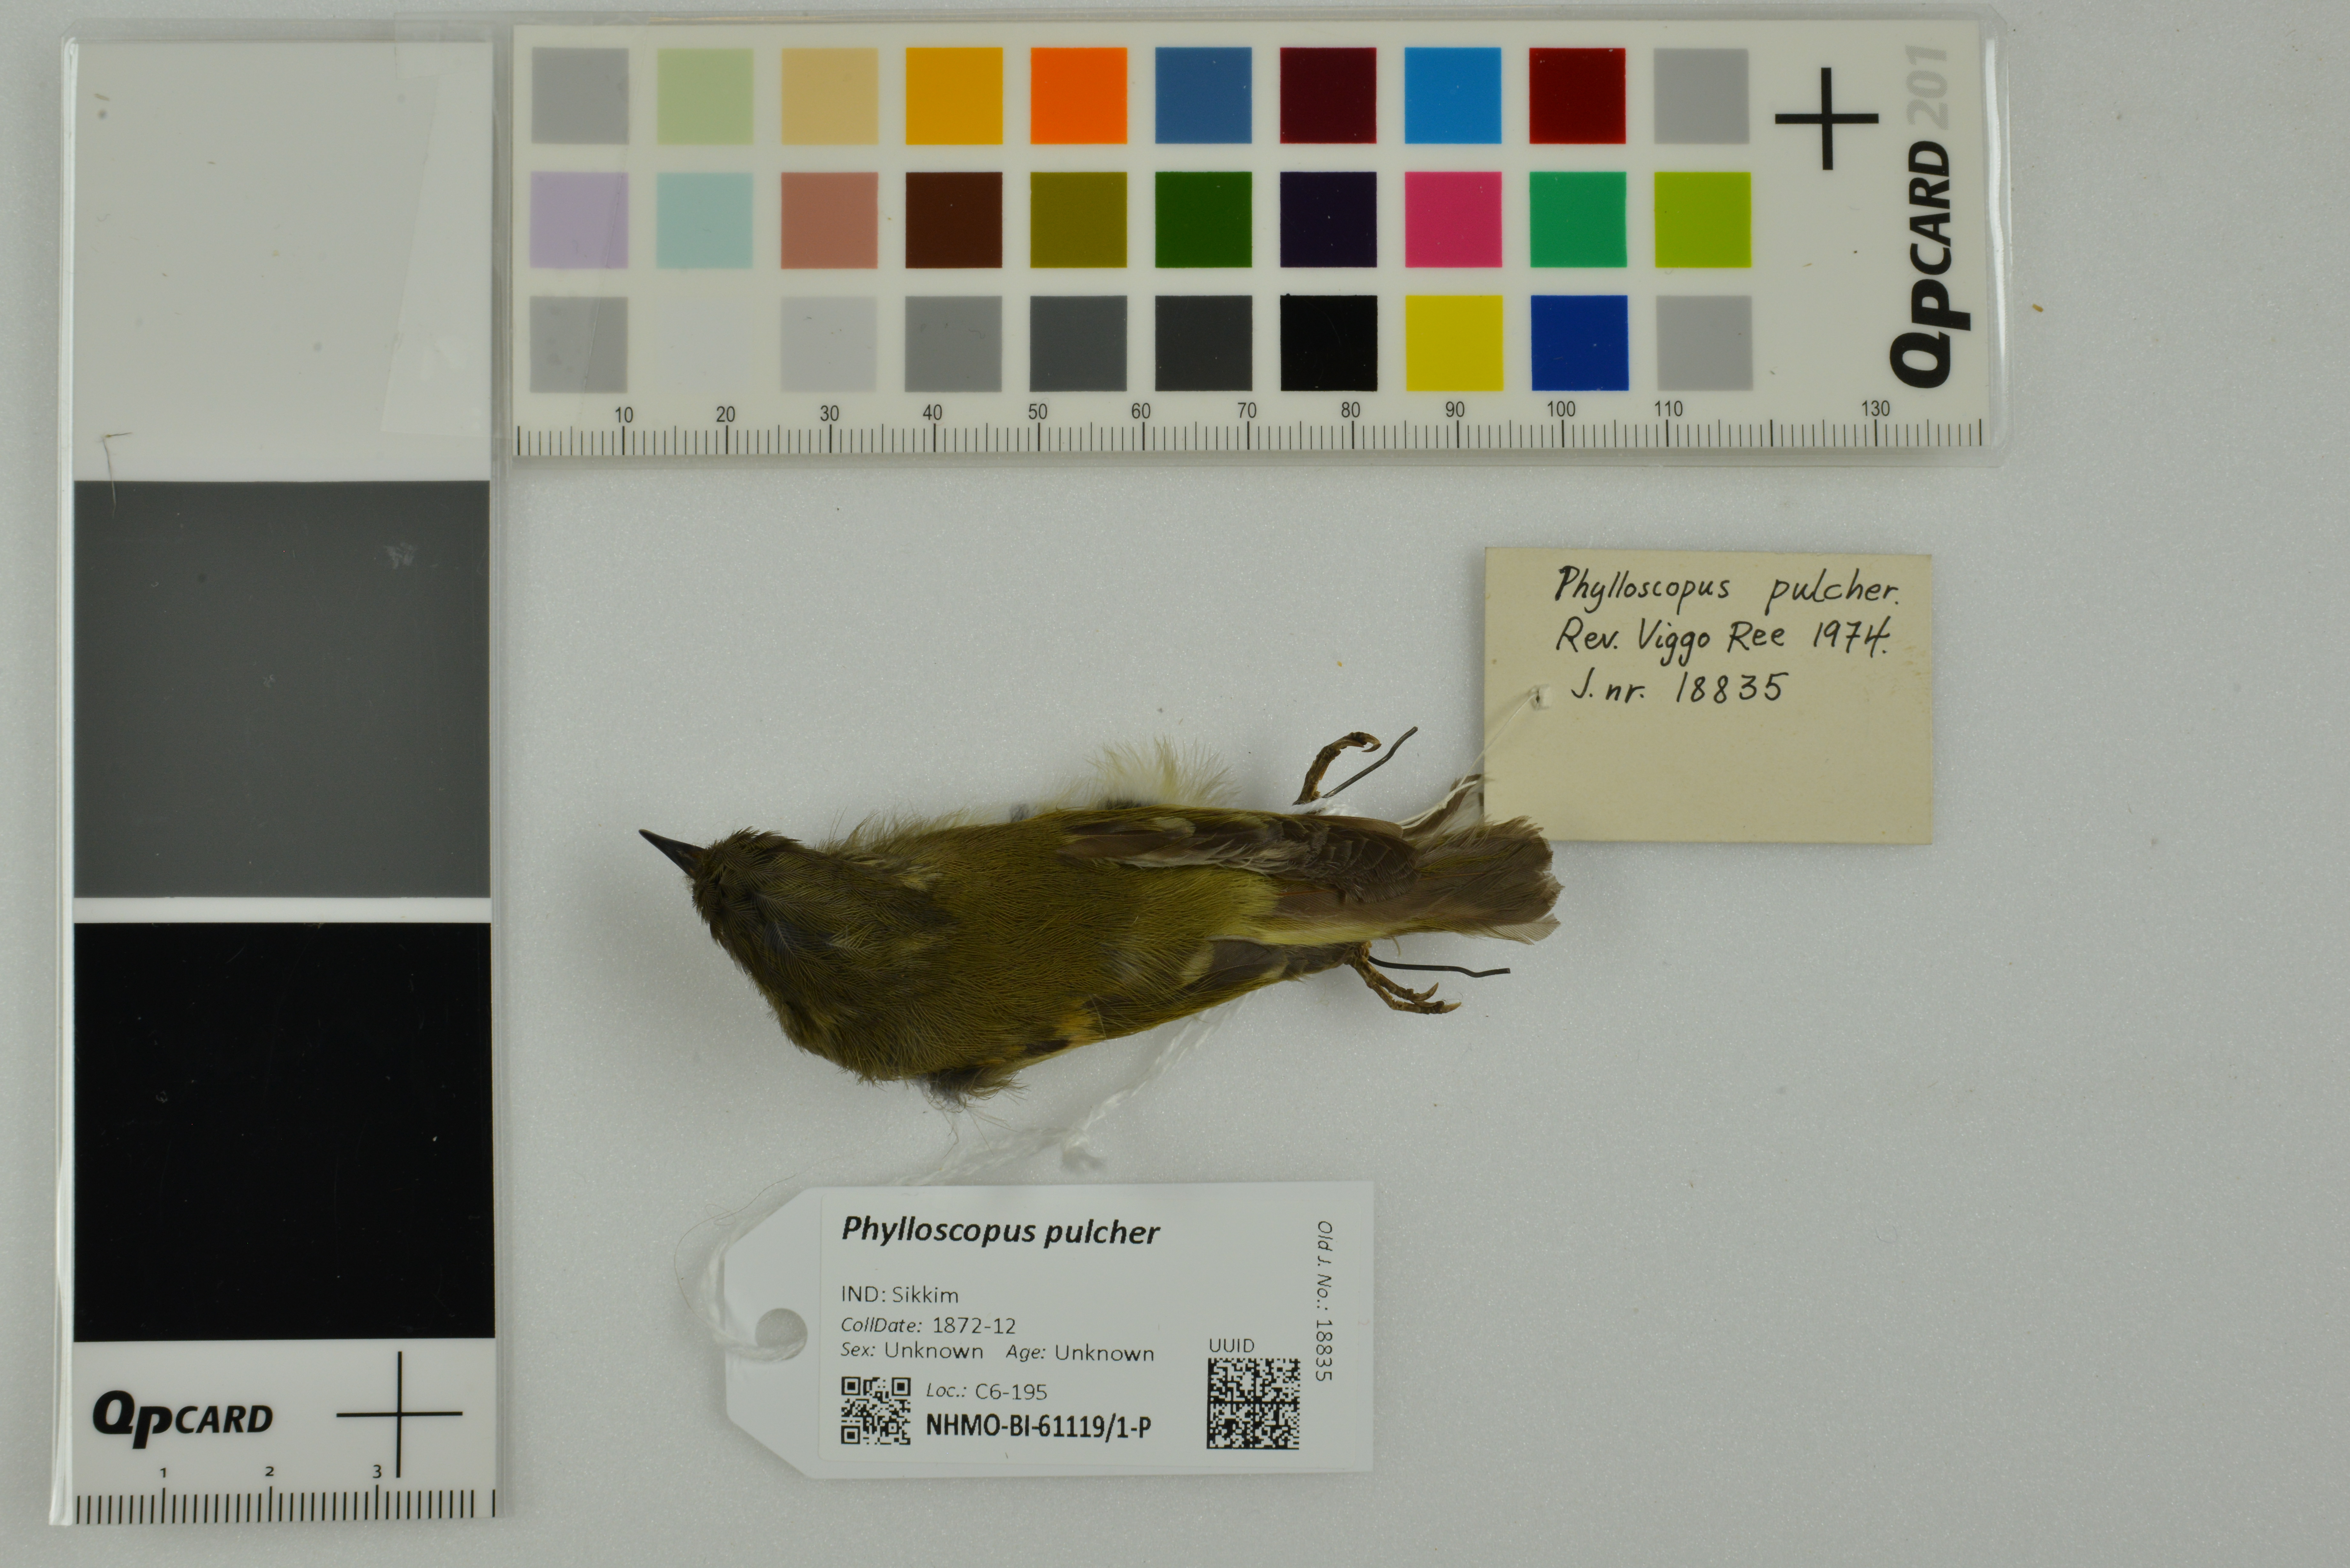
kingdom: Animalia
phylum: Chordata
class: Aves
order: Passeriformes
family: Phylloscopidae
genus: Phylloscopus
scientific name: Phylloscopus pulcher
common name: Buff-barred warbler
